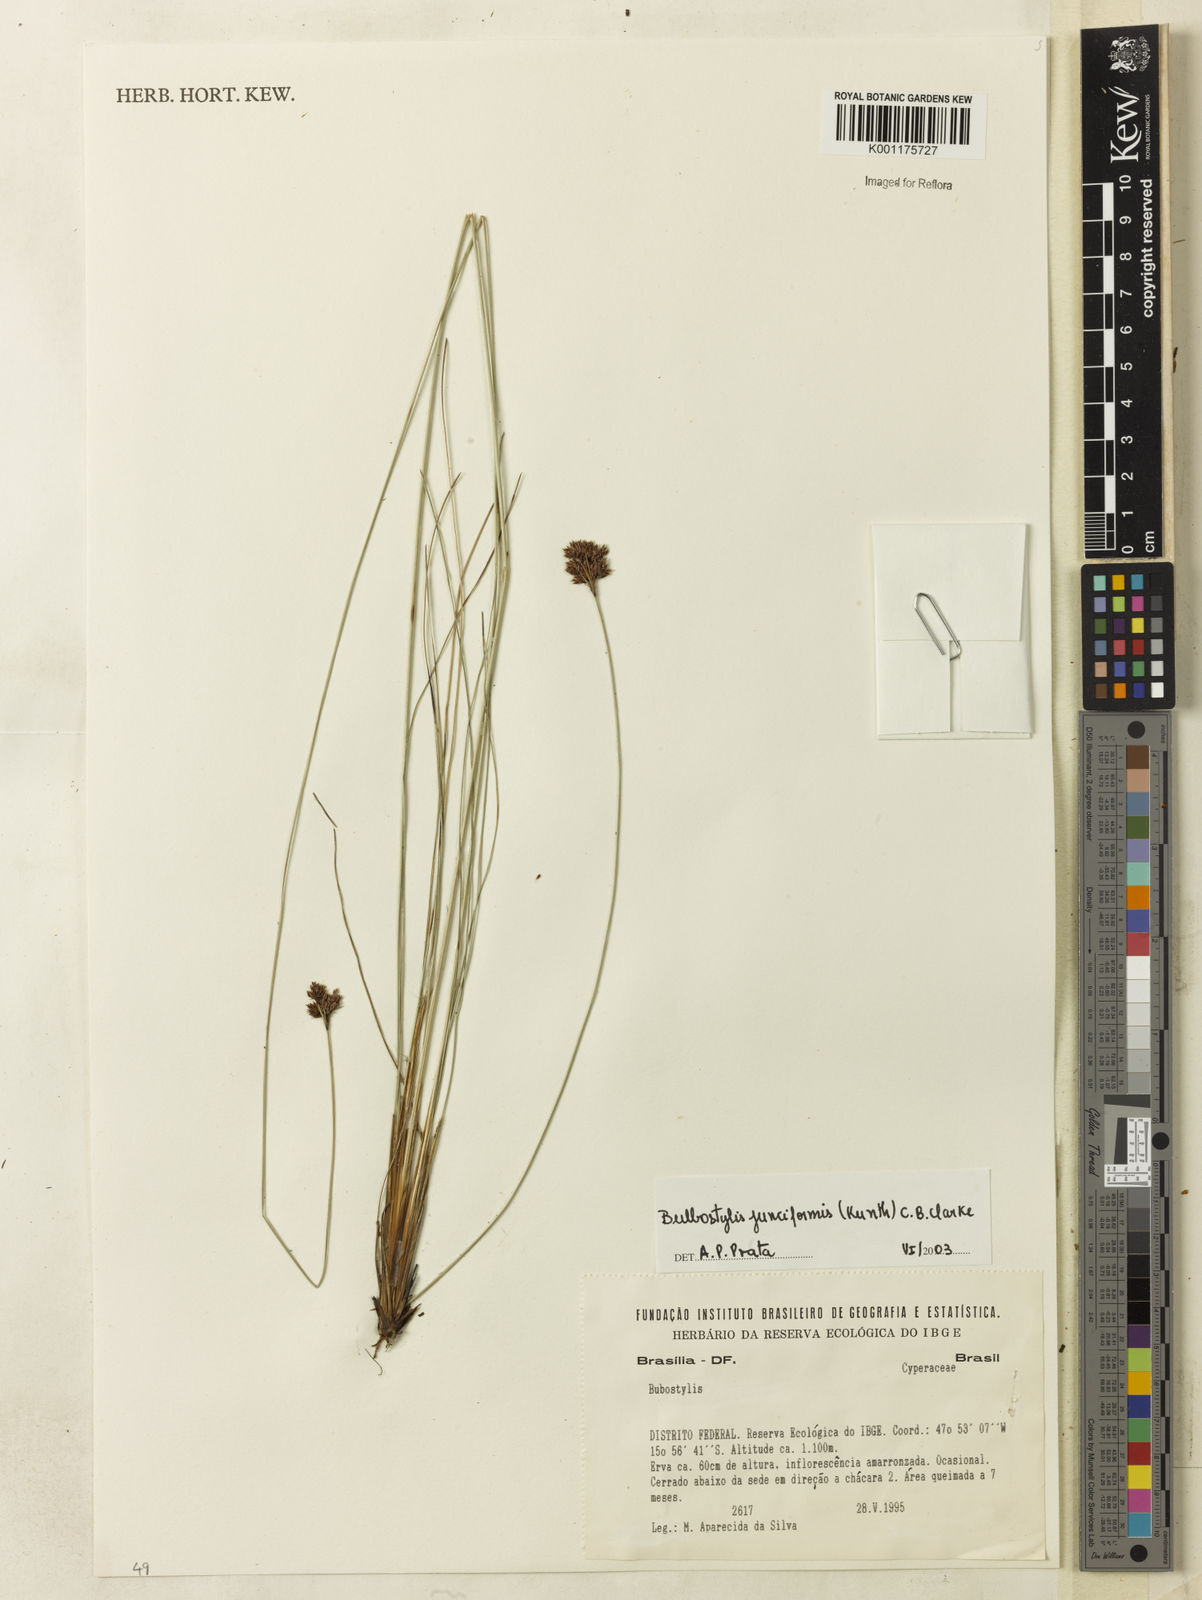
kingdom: Plantae
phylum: Tracheophyta
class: Liliopsida
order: Poales
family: Cyperaceae
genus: Bulbostylis
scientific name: Bulbostylis junciformis
